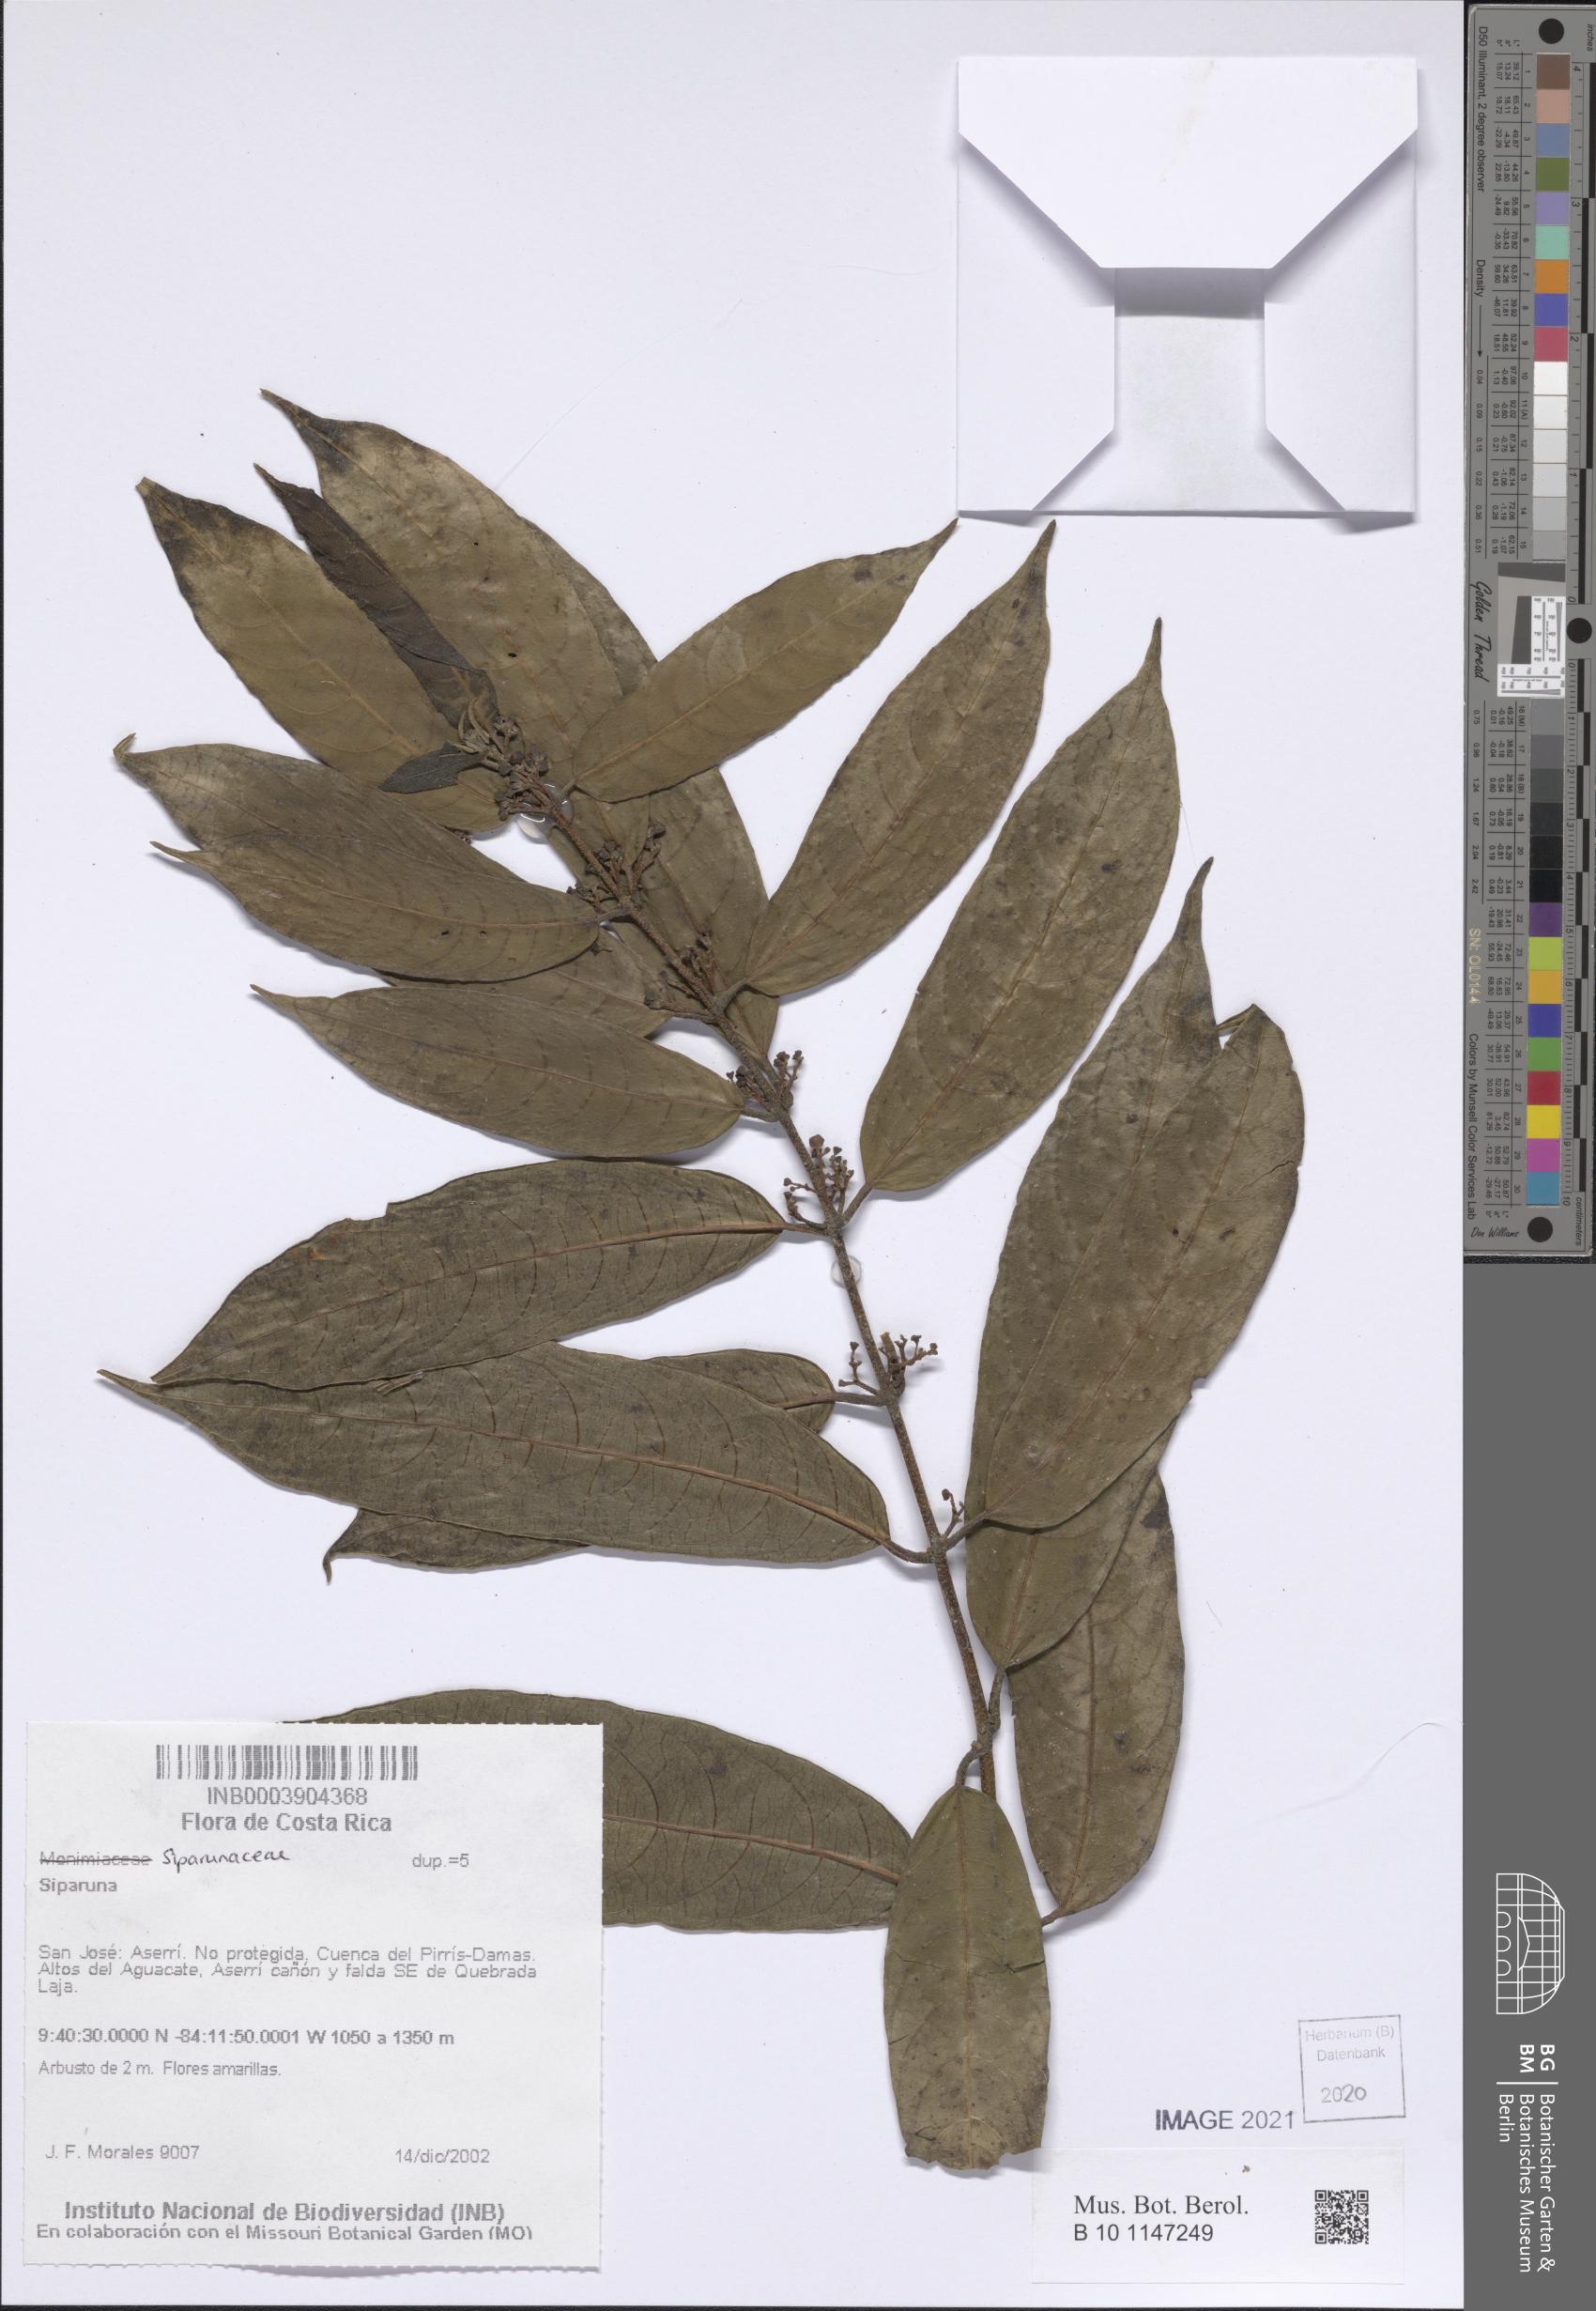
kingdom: Plantae
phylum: Tracheophyta
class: Magnoliopsida
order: Laurales
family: Siparunaceae
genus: Siparuna
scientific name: Siparuna
